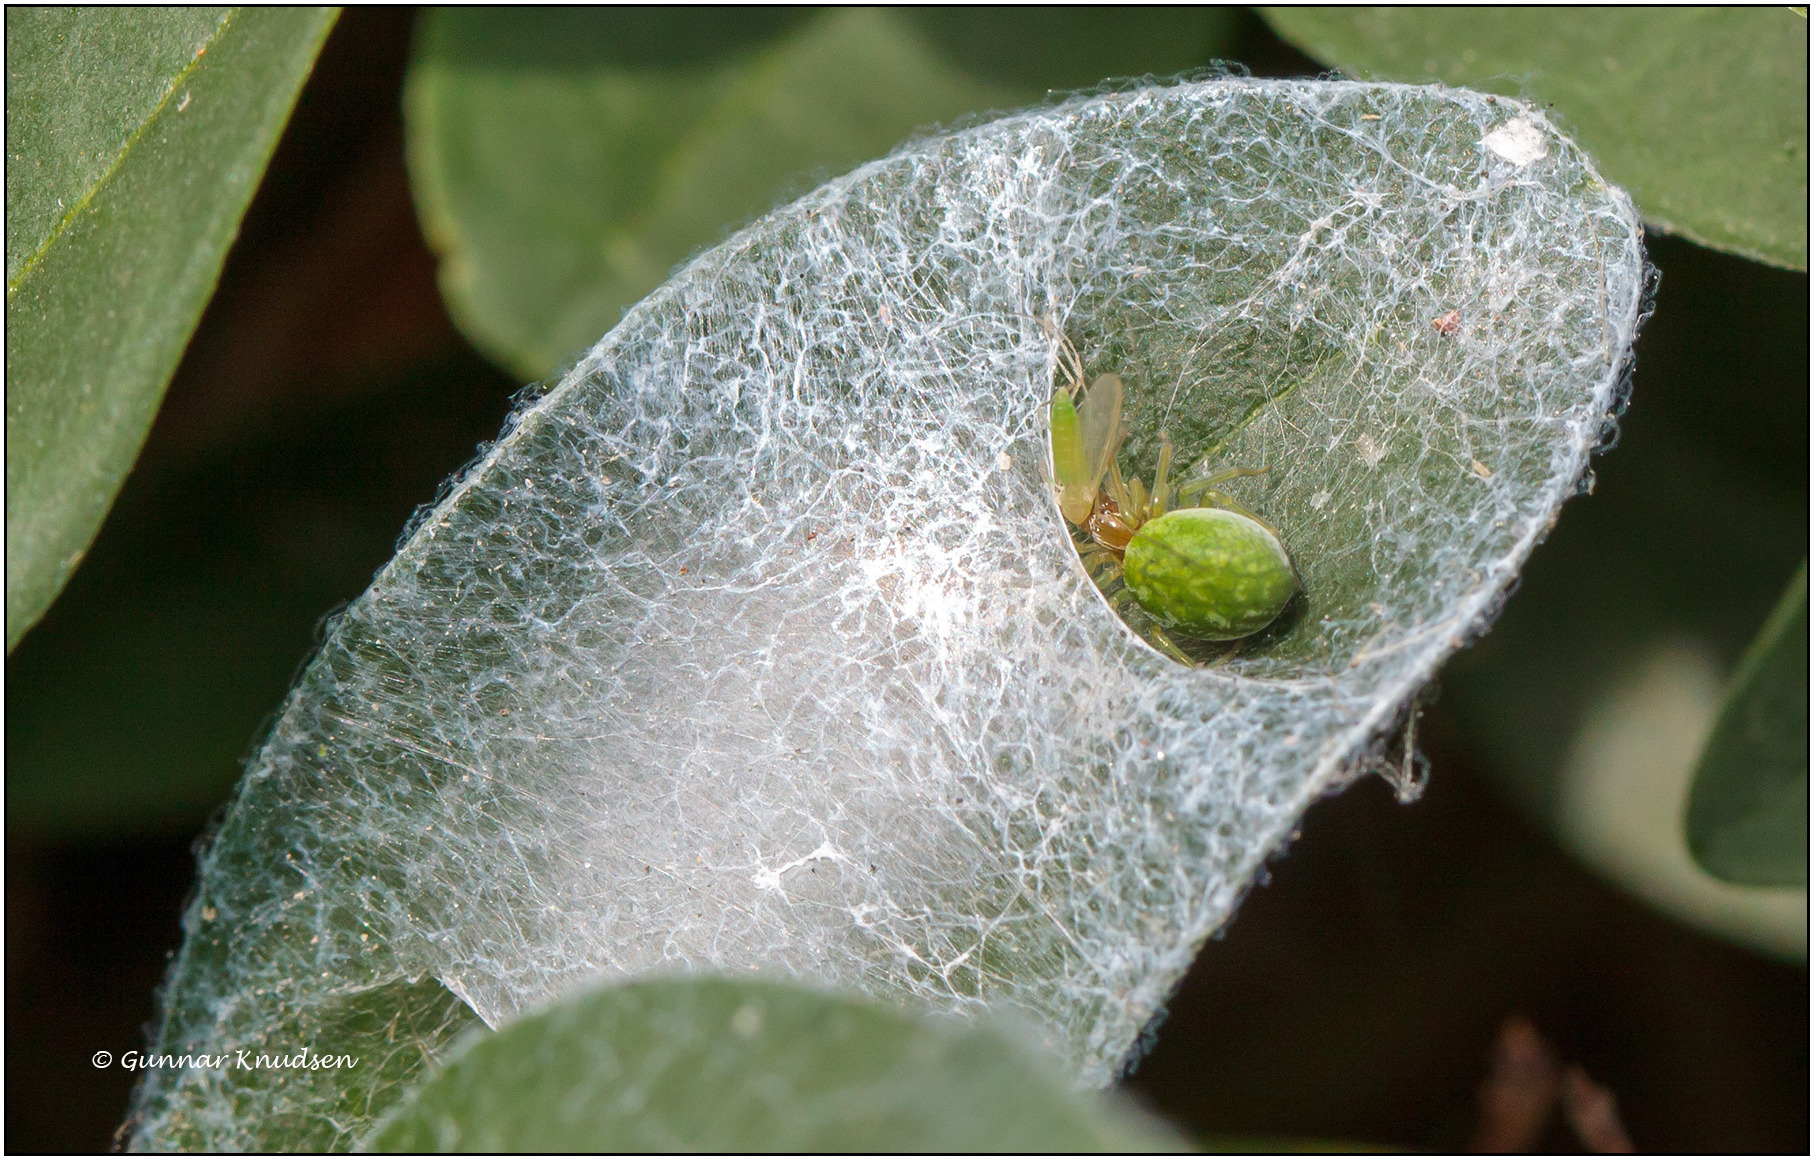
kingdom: Animalia
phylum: Arthropoda
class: Arachnida
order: Araneae
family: Dictynidae
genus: Nigma
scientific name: Nigma walckenaeri
